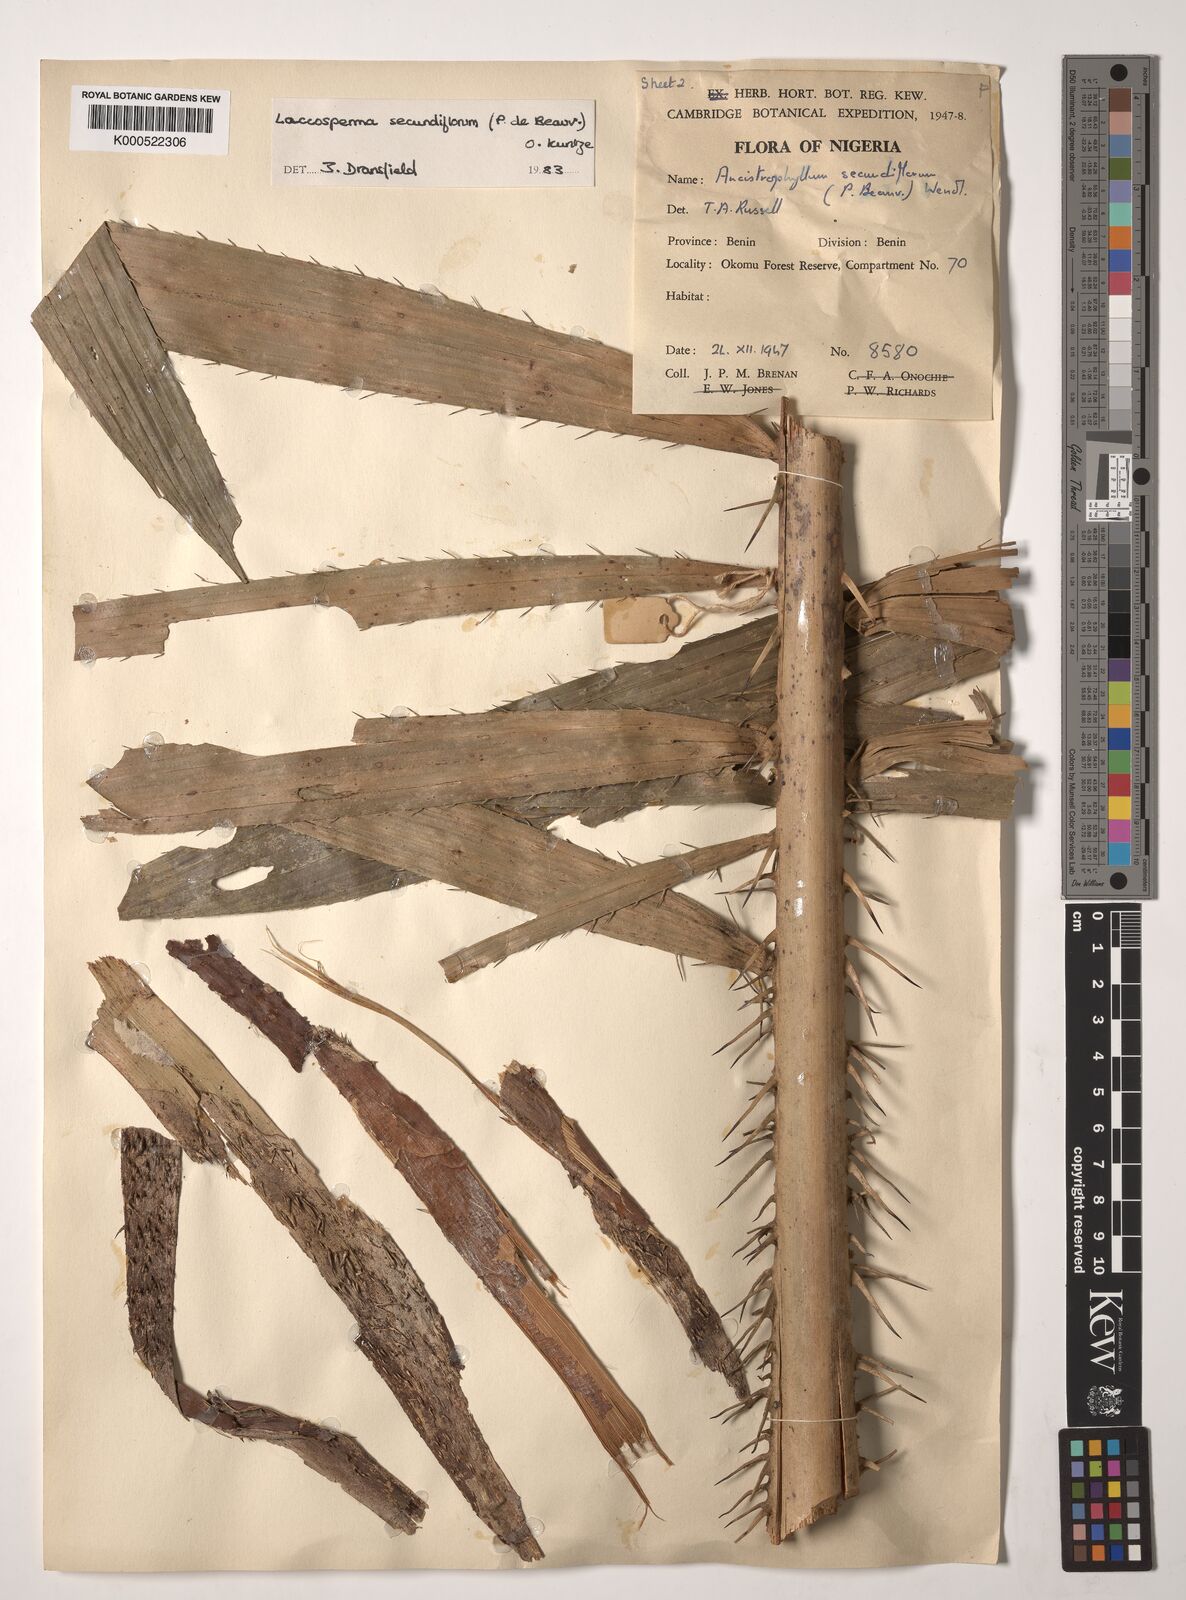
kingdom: Plantae
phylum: Tracheophyta
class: Liliopsida
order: Arecales
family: Arecaceae
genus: Laccosperma
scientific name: Laccosperma secundiflorum
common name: Rattan
